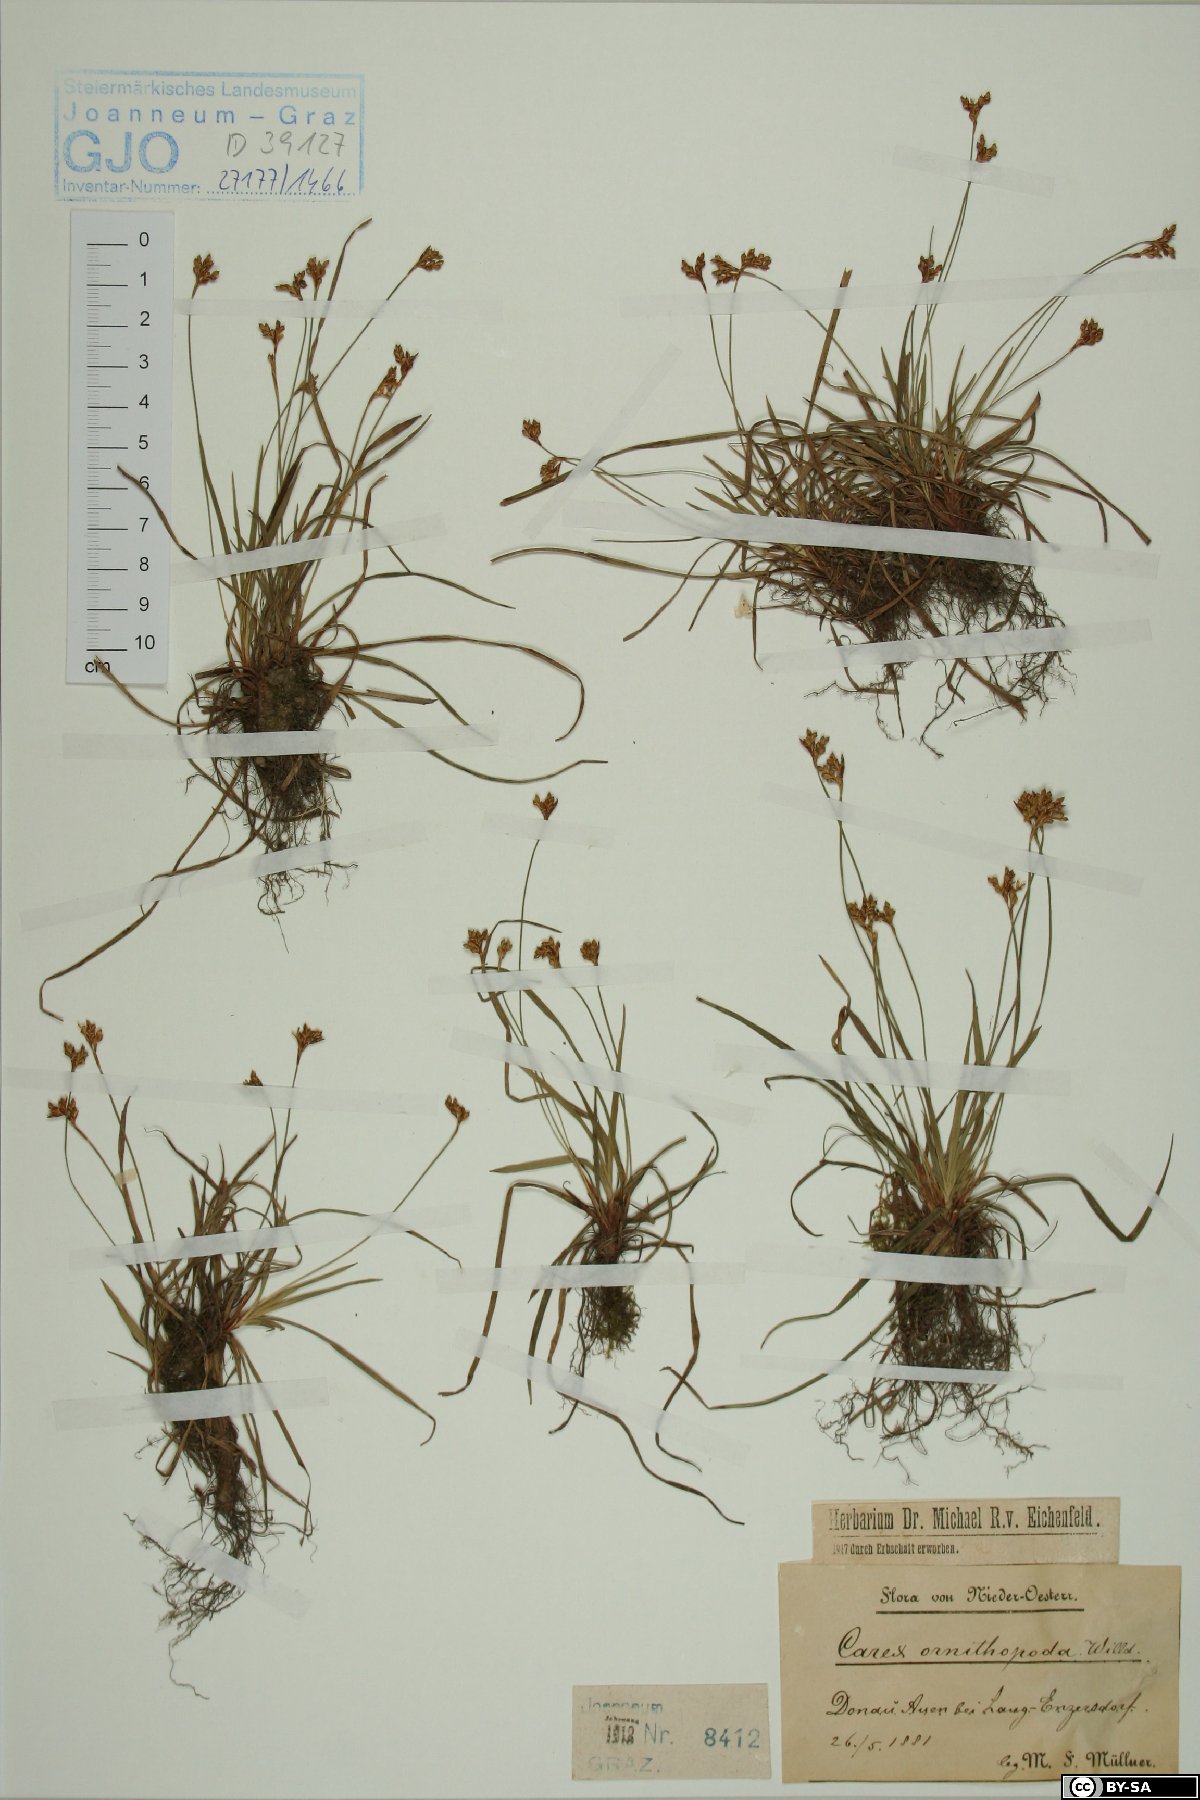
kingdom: Plantae
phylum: Tracheophyta
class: Liliopsida
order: Poales
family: Cyperaceae
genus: Carex
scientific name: Carex ornithopoda
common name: Bird's-foot sedge
